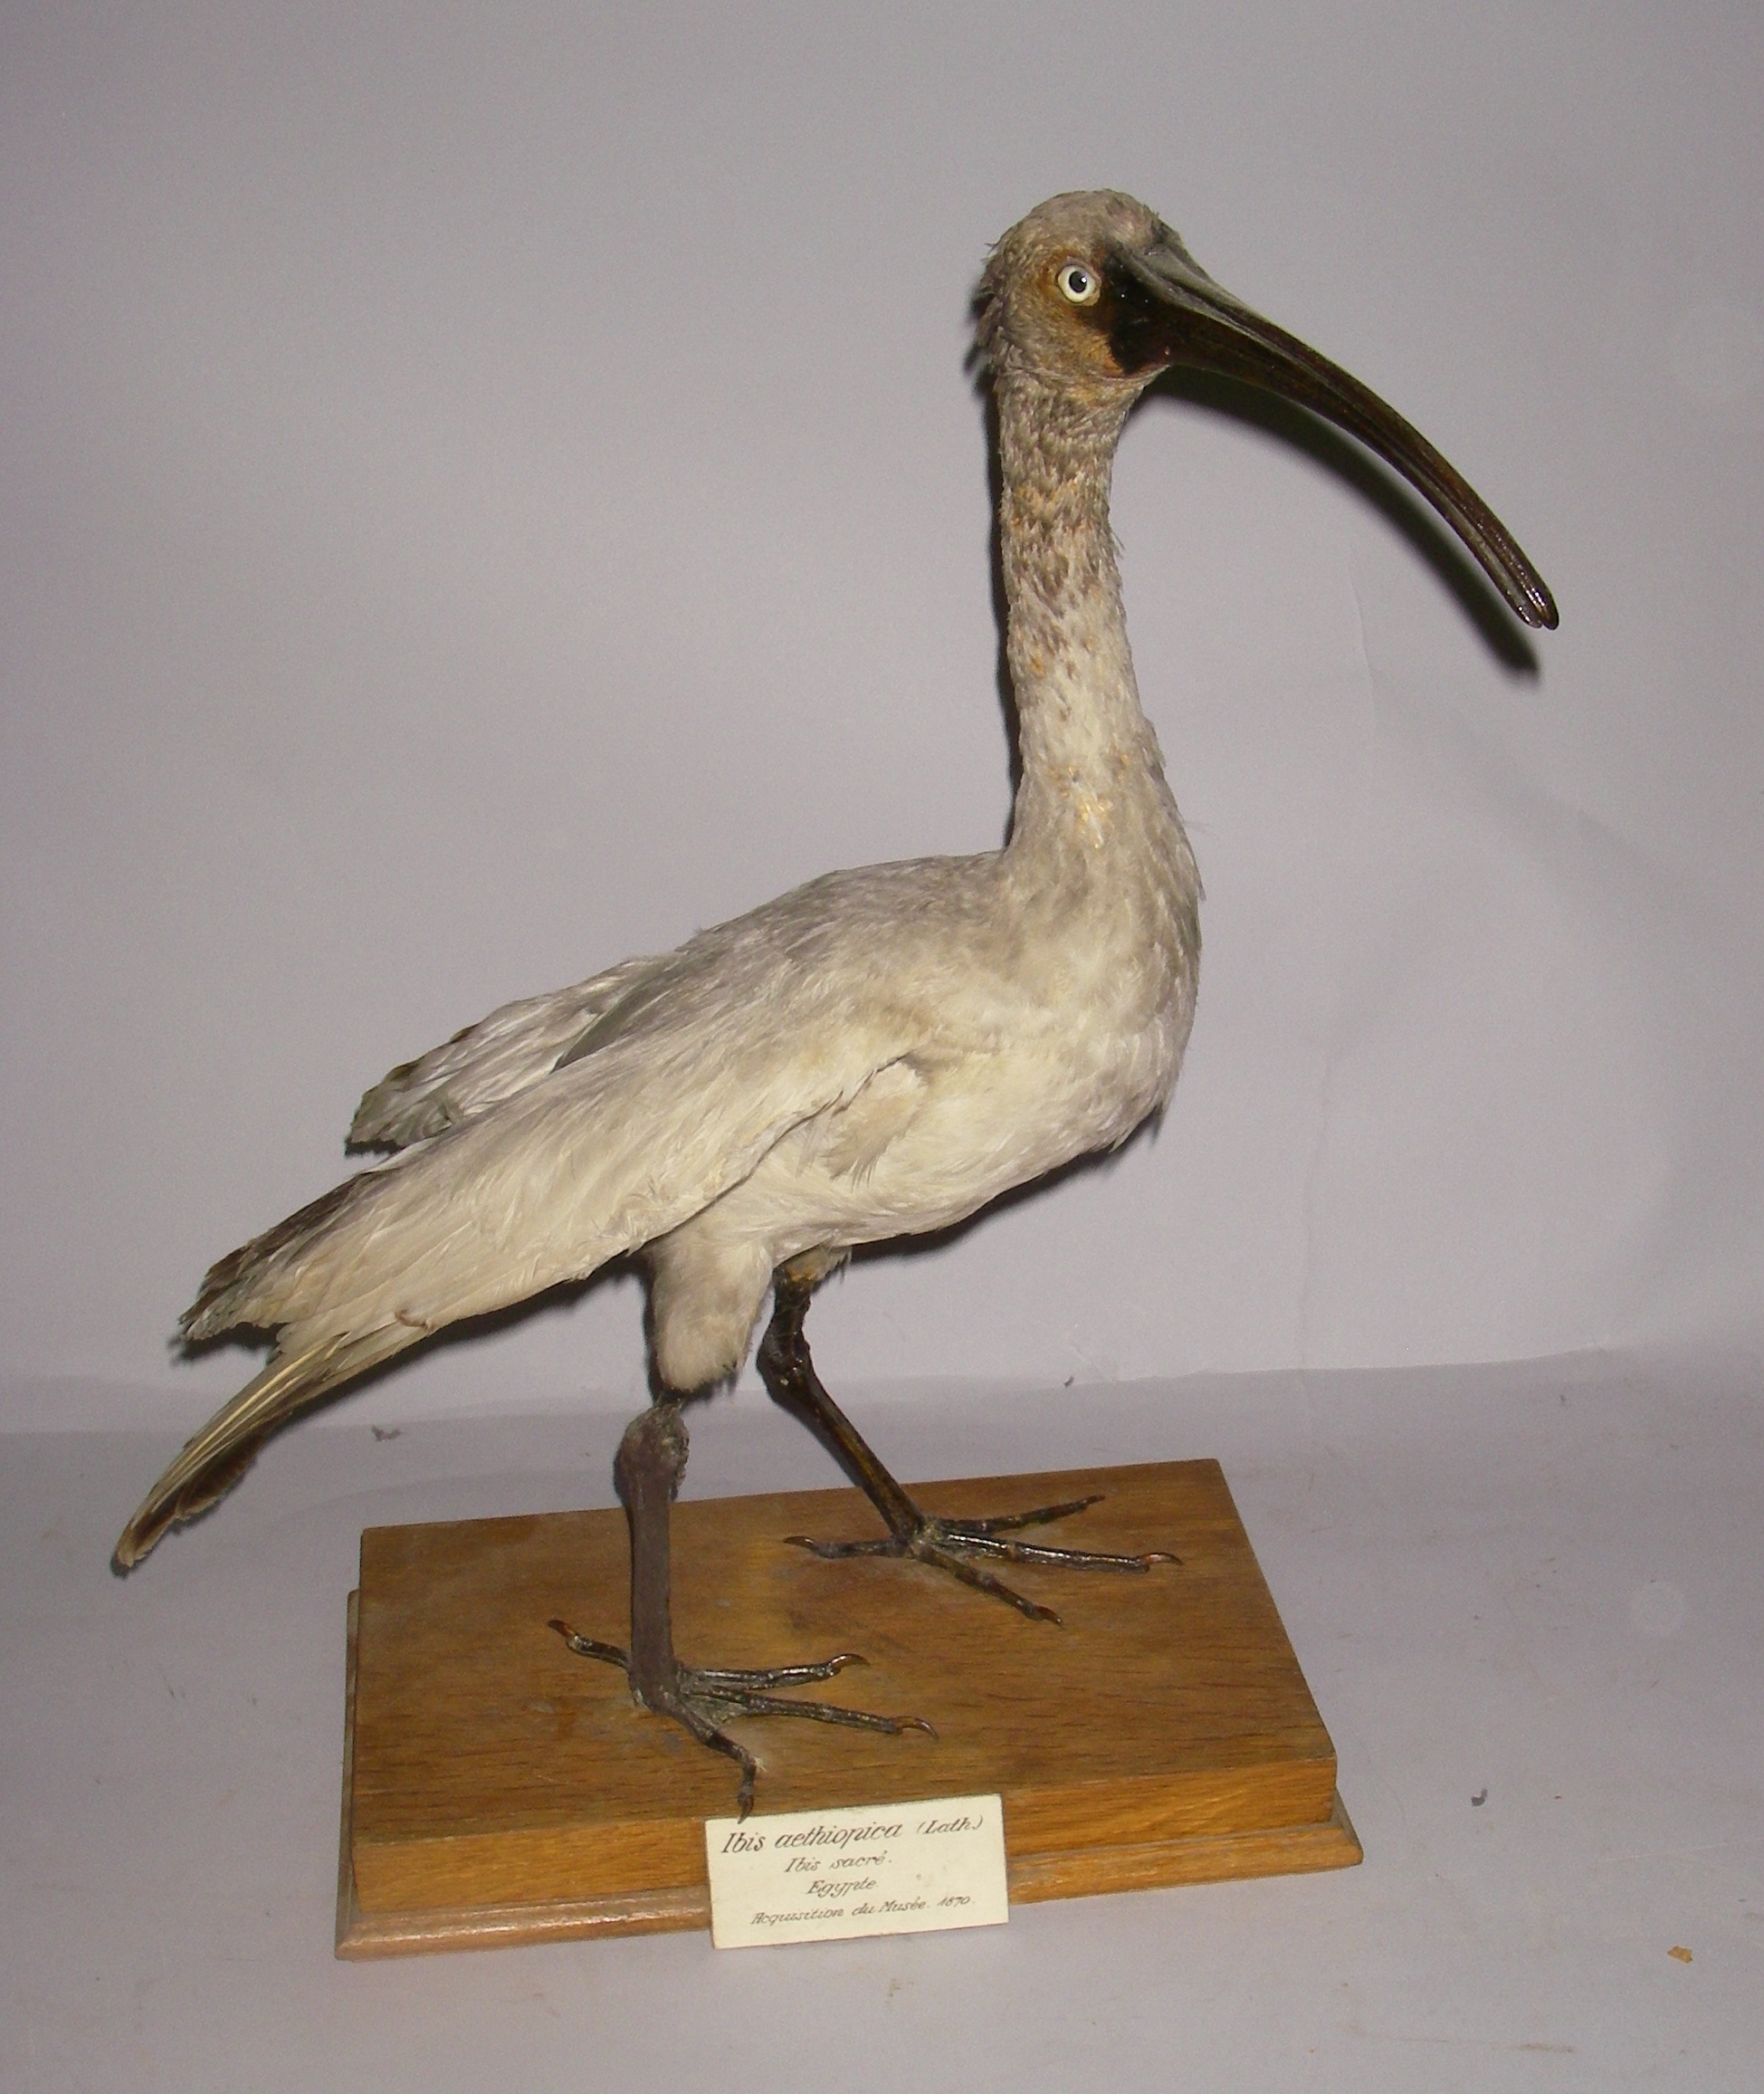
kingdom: Animalia
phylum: Chordata
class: Aves
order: Pelecaniformes
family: Threskiornithidae
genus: Threskiornis
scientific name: Threskiornis aethiopicus
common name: Sacred ibis
